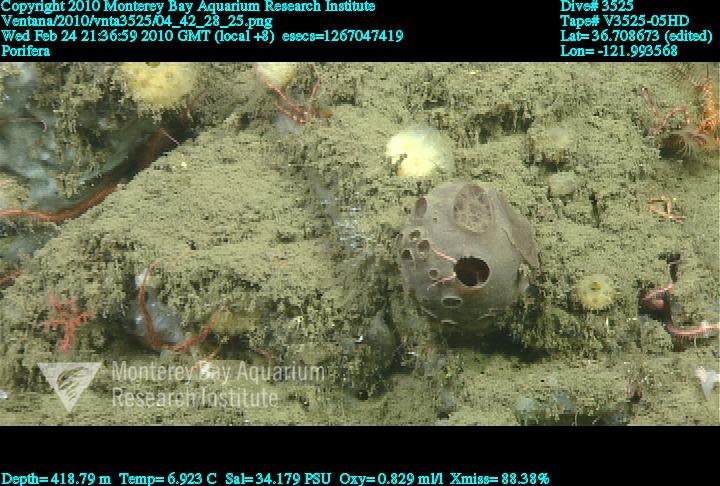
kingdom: Animalia
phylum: Porifera
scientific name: Porifera
